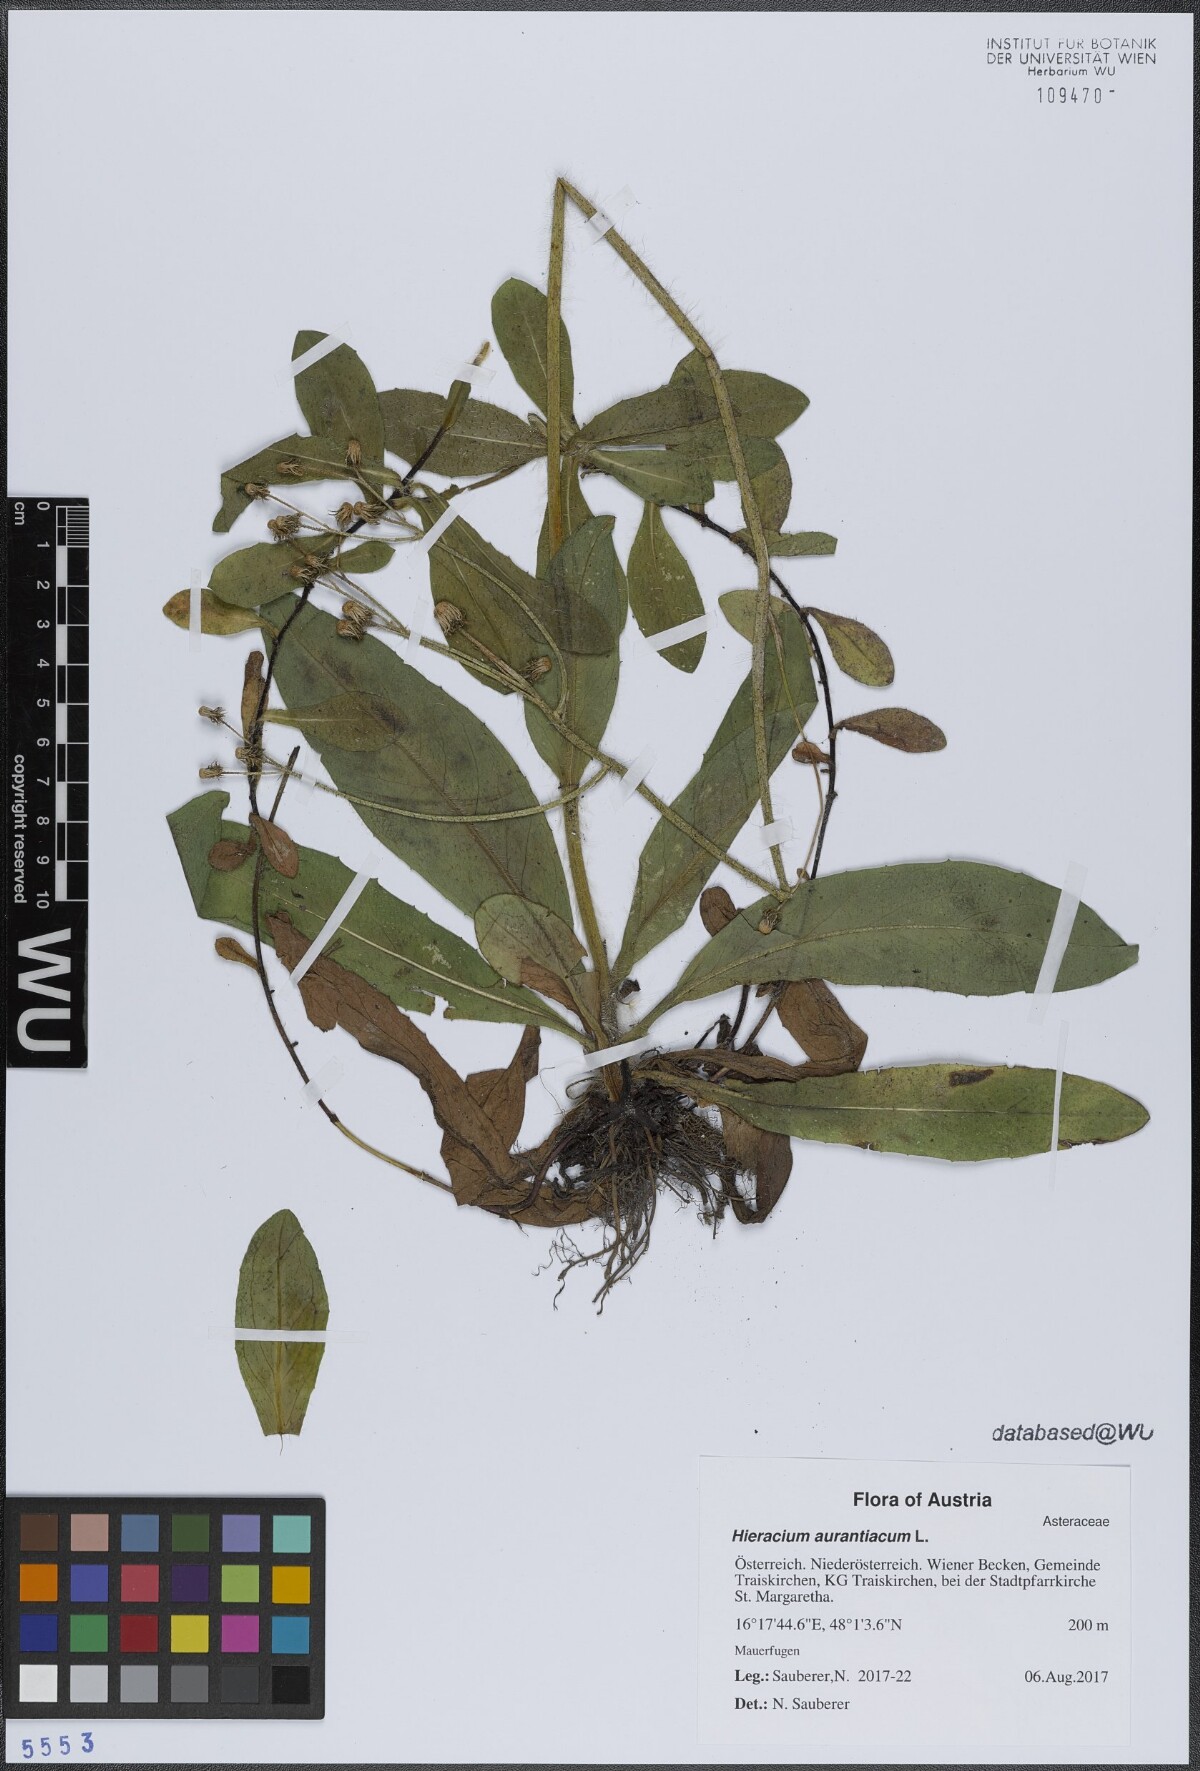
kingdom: Plantae
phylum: Tracheophyta
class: Magnoliopsida
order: Asterales
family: Asteraceae
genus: Pilosella
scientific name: Pilosella aurantiaca
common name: Fox-and-cubs
